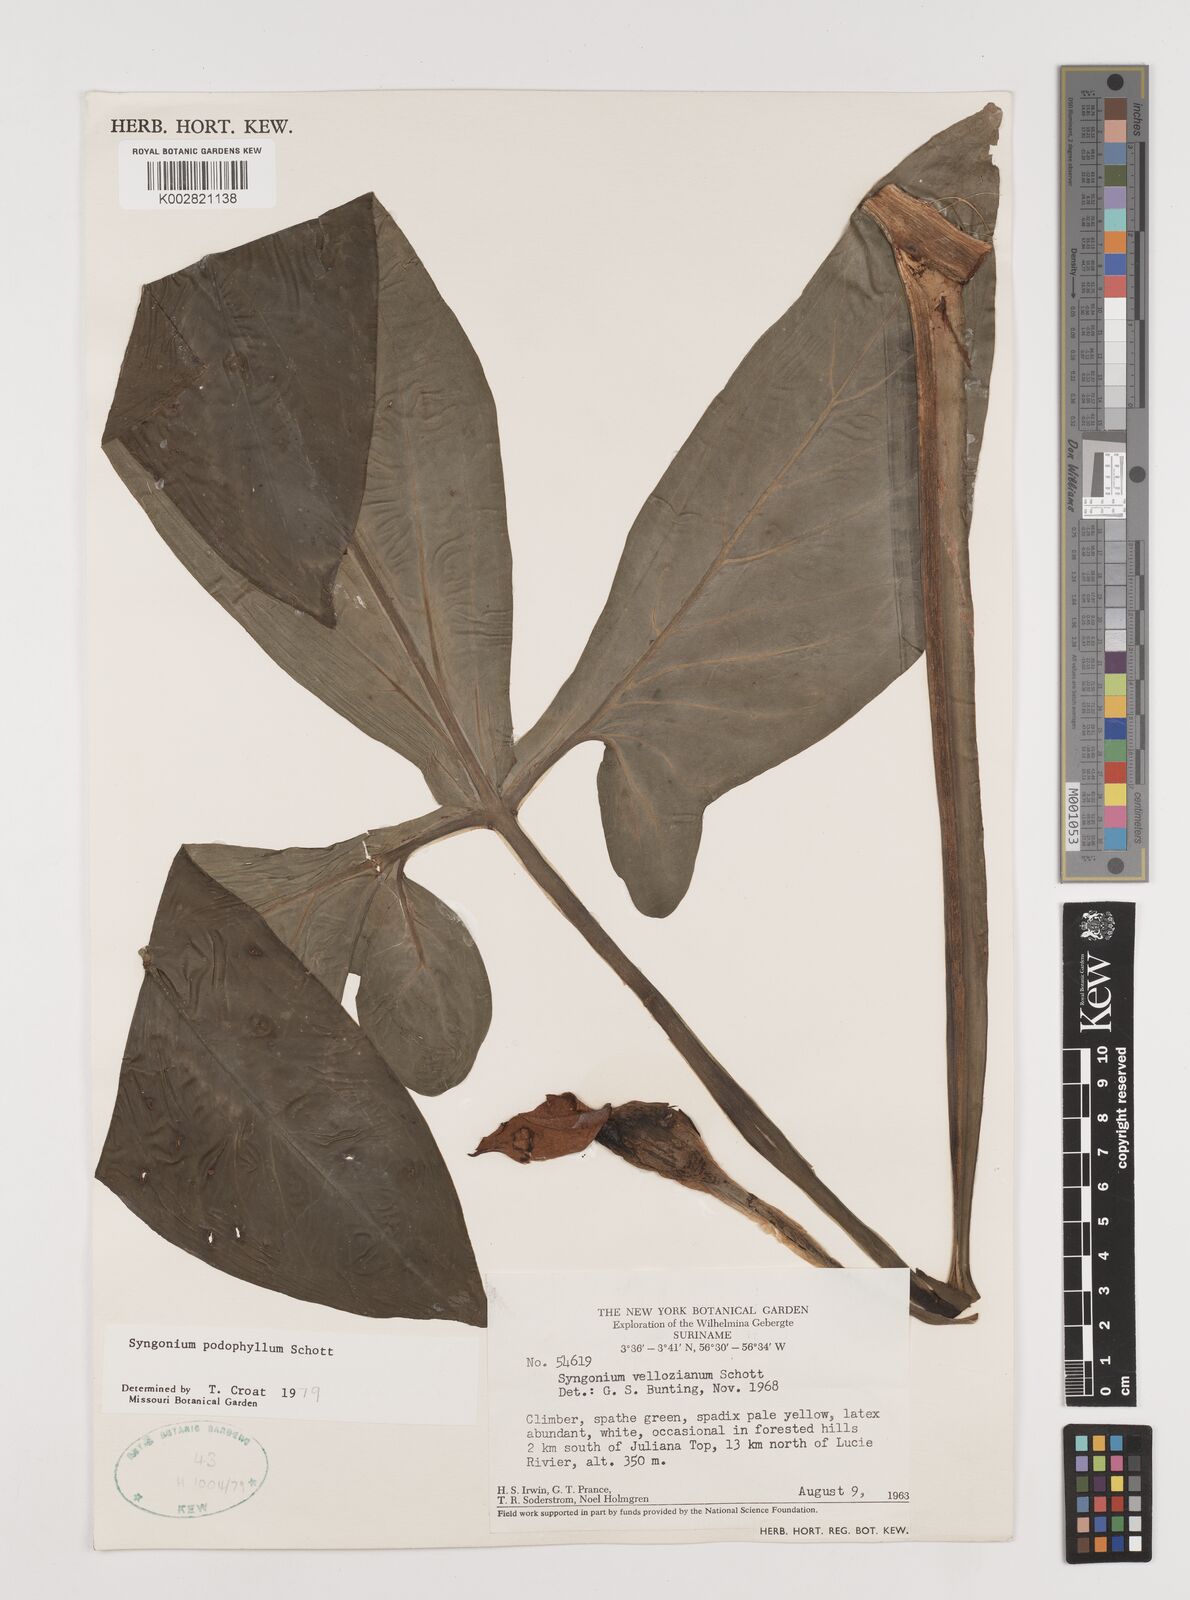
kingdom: Plantae
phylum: Tracheophyta
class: Liliopsida
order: Alismatales
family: Araceae
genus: Syngonium
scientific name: Syngonium podophyllum
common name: American evergreen
